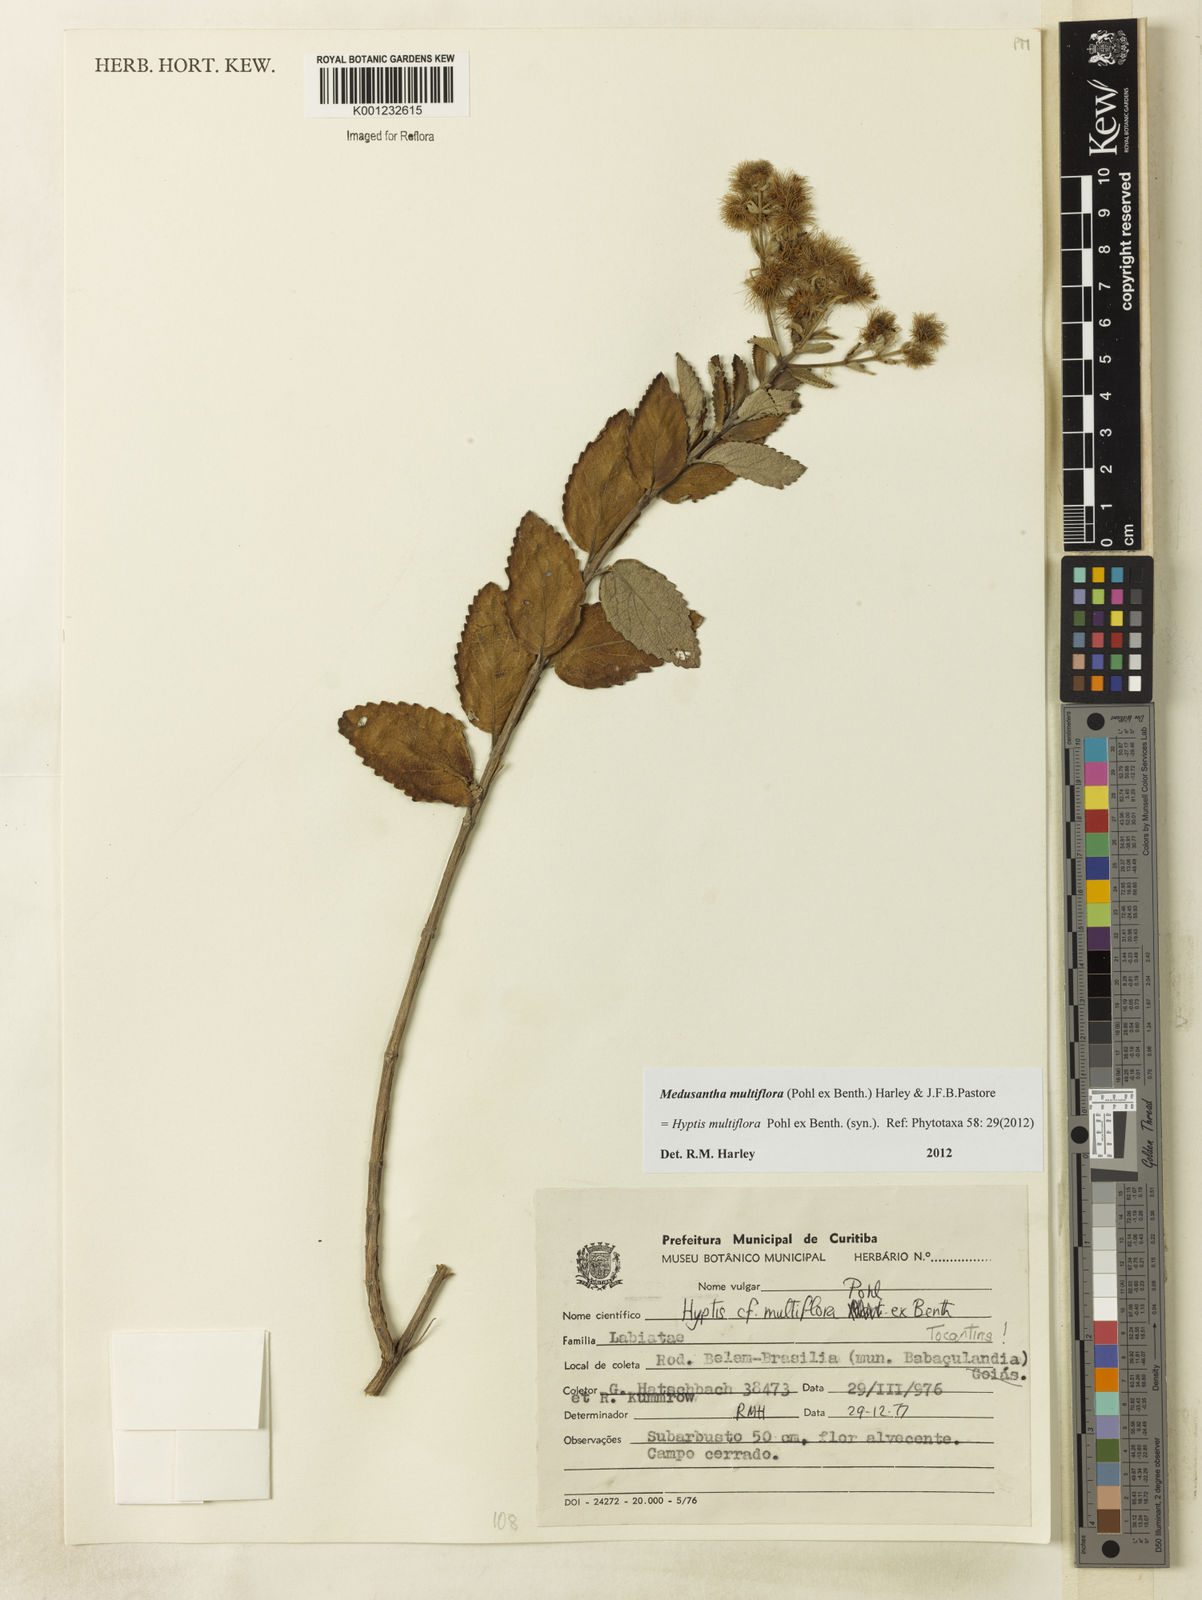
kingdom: Plantae
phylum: Tracheophyta
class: Magnoliopsida
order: Lamiales
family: Lamiaceae
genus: Medusantha
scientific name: Medusantha multiflora
